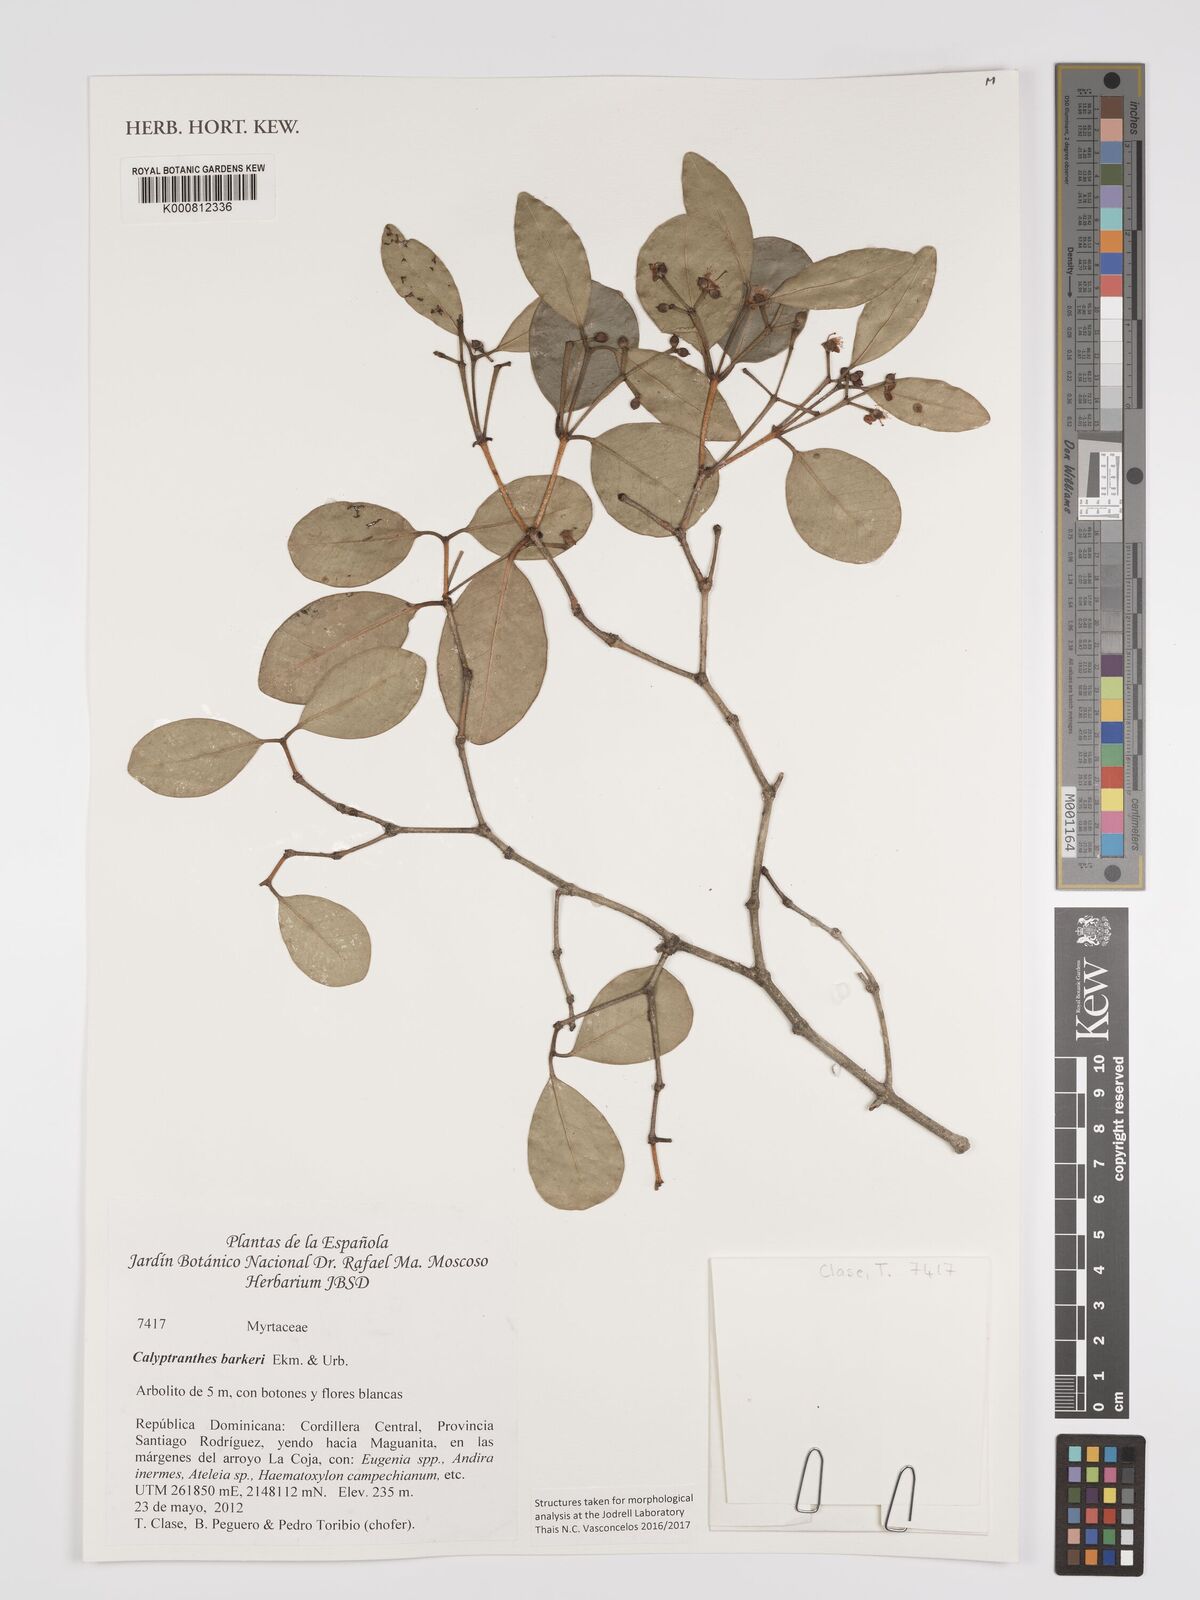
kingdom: Plantae
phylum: Tracheophyta
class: Magnoliopsida
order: Myrtales
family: Myrtaceae
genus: Myrcia
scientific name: Myrcia barkeri
